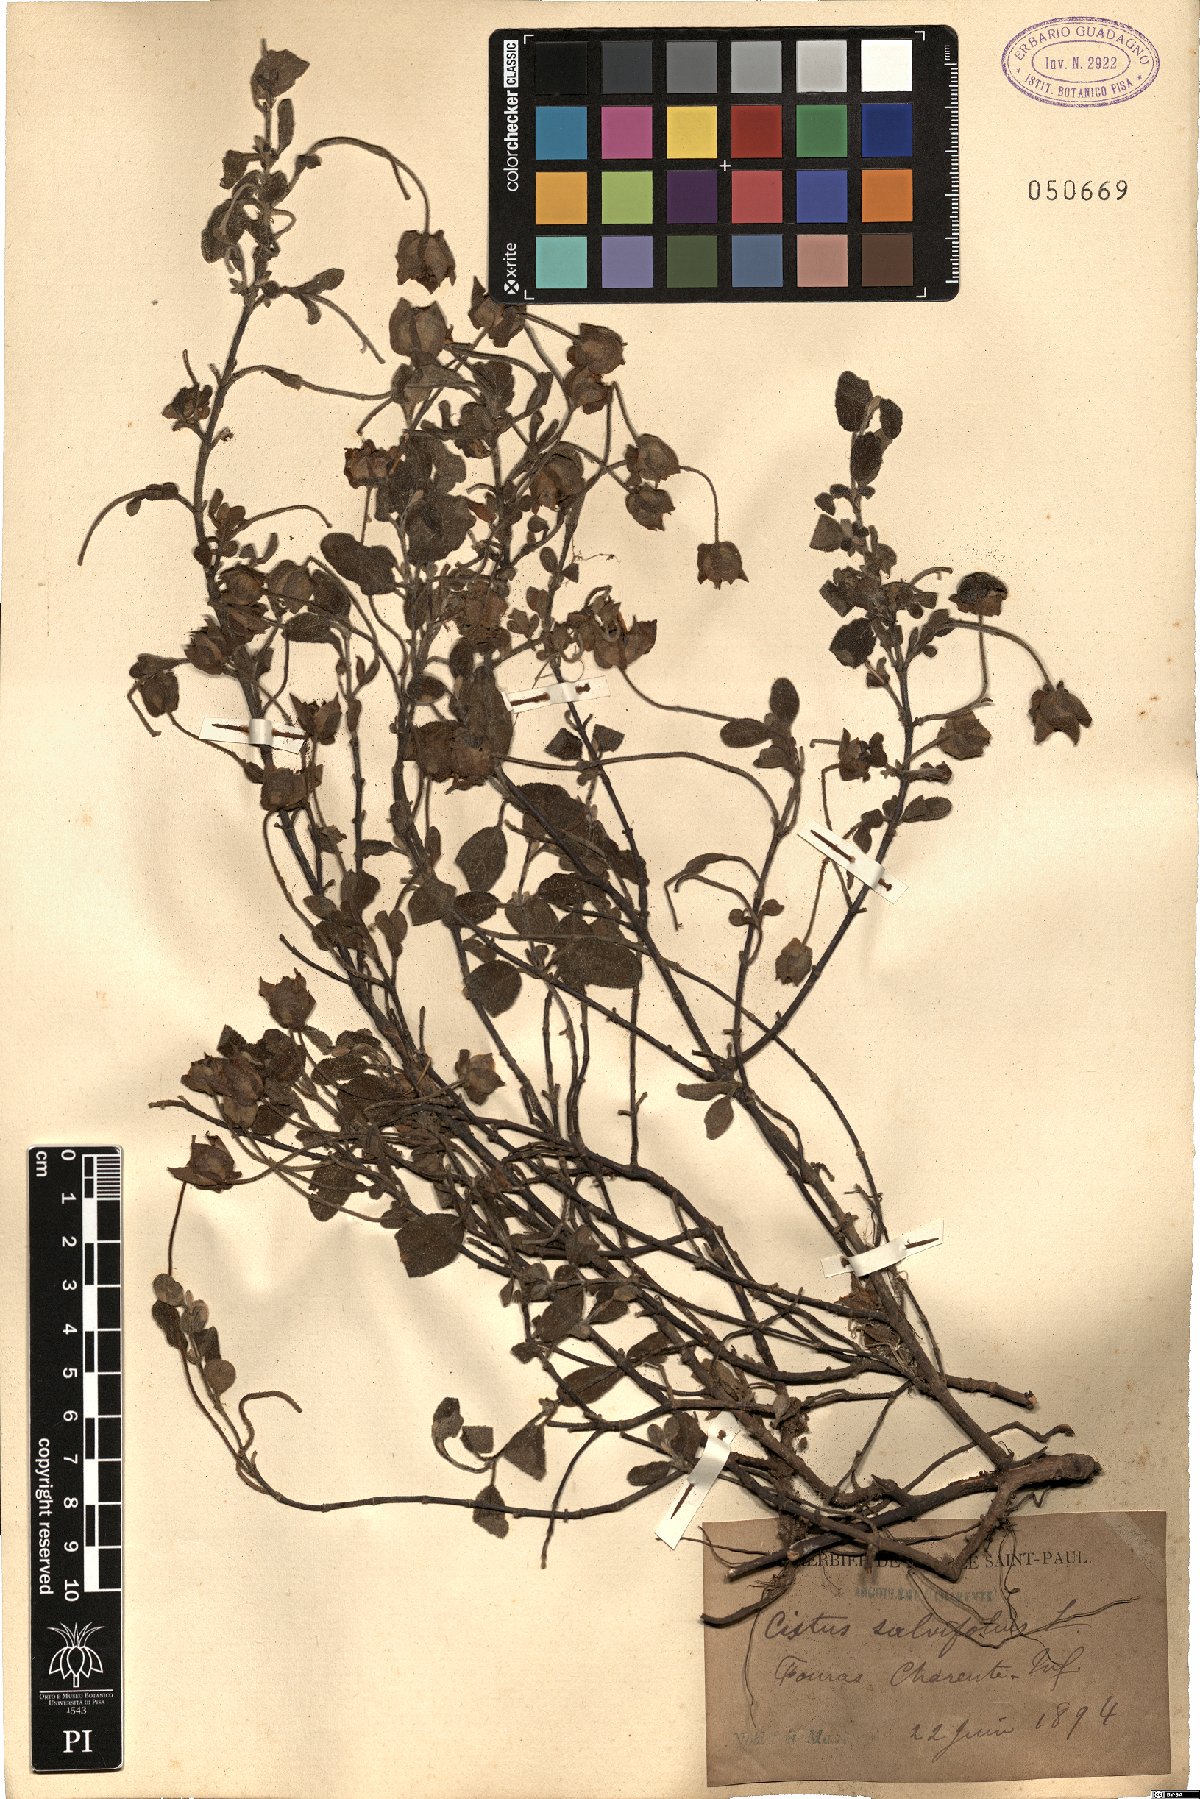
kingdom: Plantae
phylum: Tracheophyta
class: Magnoliopsida
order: Malvales
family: Cistaceae
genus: Cistus
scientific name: Cistus salviifolius
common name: Salvia cistus
